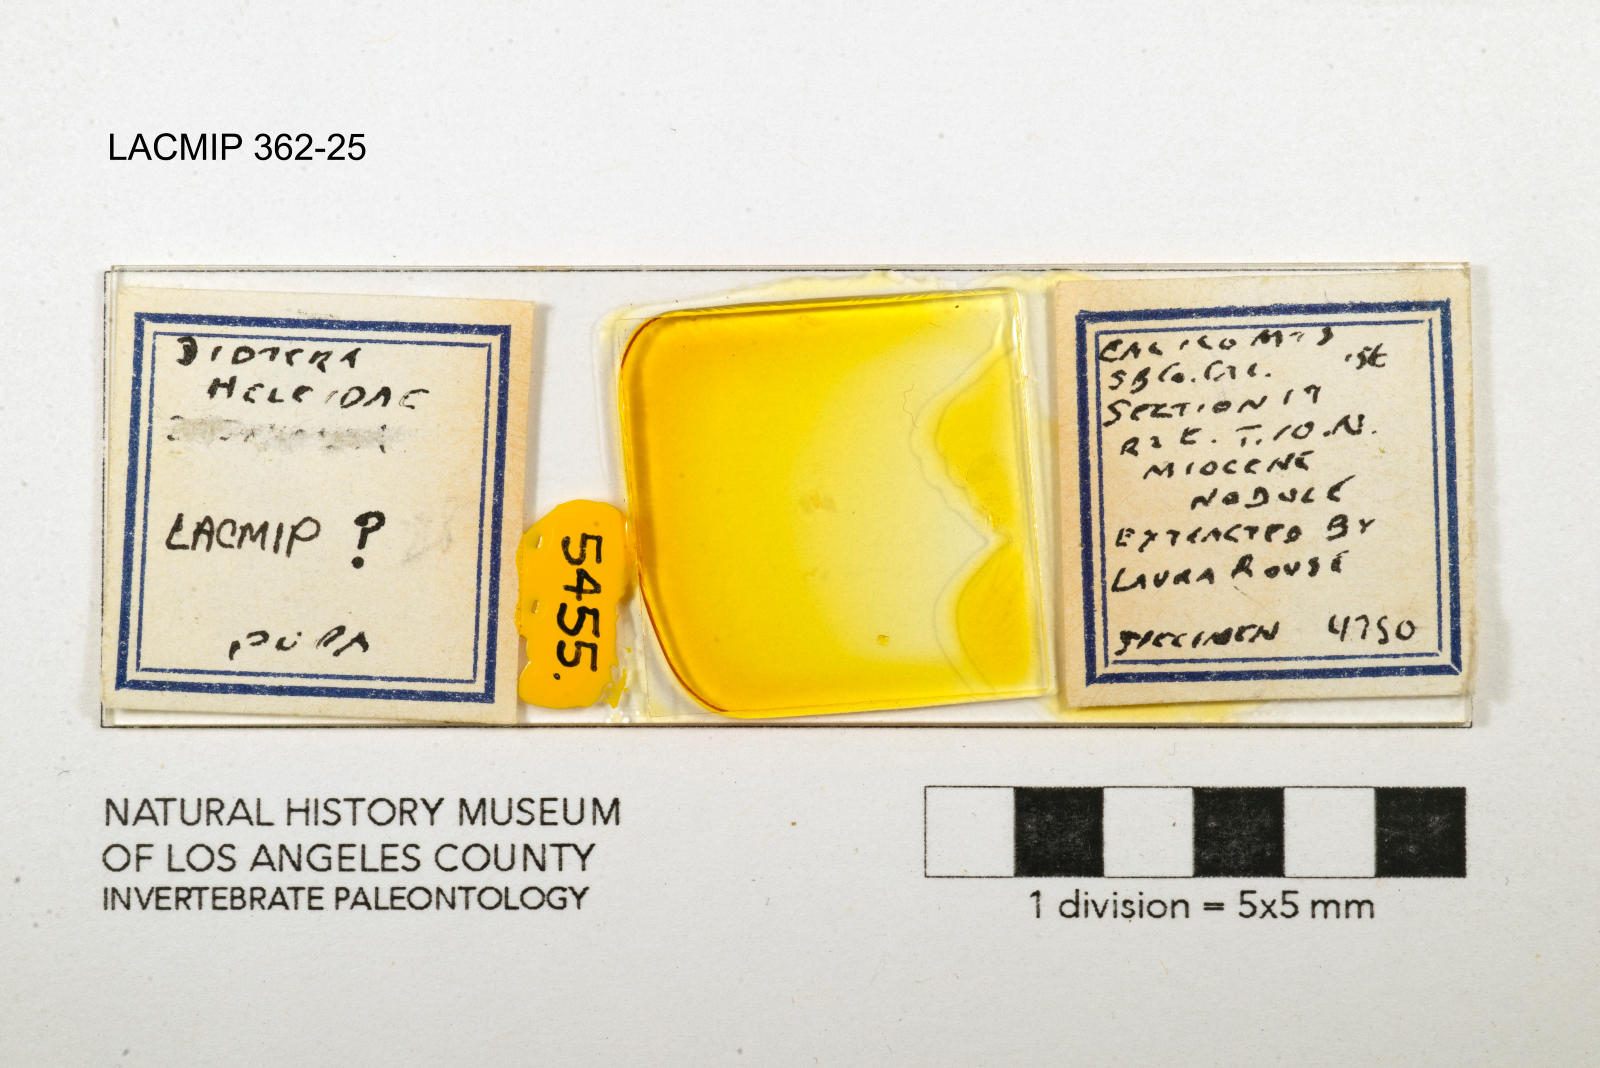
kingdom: Animalia
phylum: Arthropoda
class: Insecta
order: Diptera
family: Ceratopogonidae
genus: Palpomyia
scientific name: Palpomyia freyi
